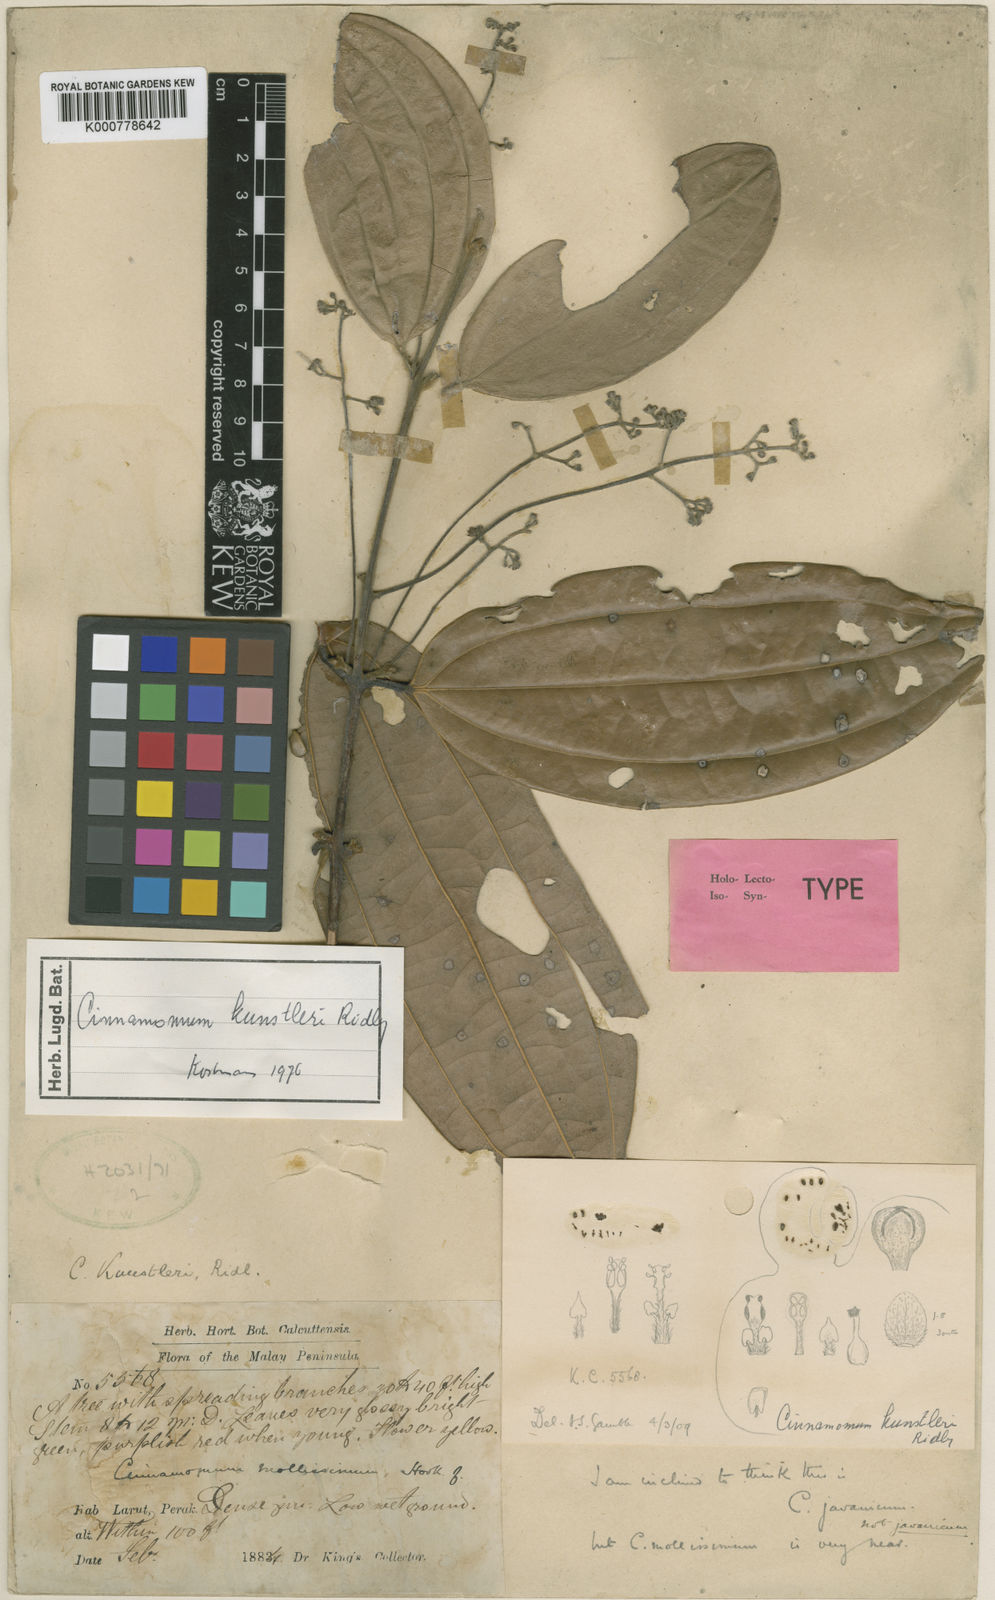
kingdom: Plantae
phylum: Tracheophyta
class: Magnoliopsida
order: Laurales
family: Lauraceae
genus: Cinnamomum
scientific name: Cinnamomum kunstleri
